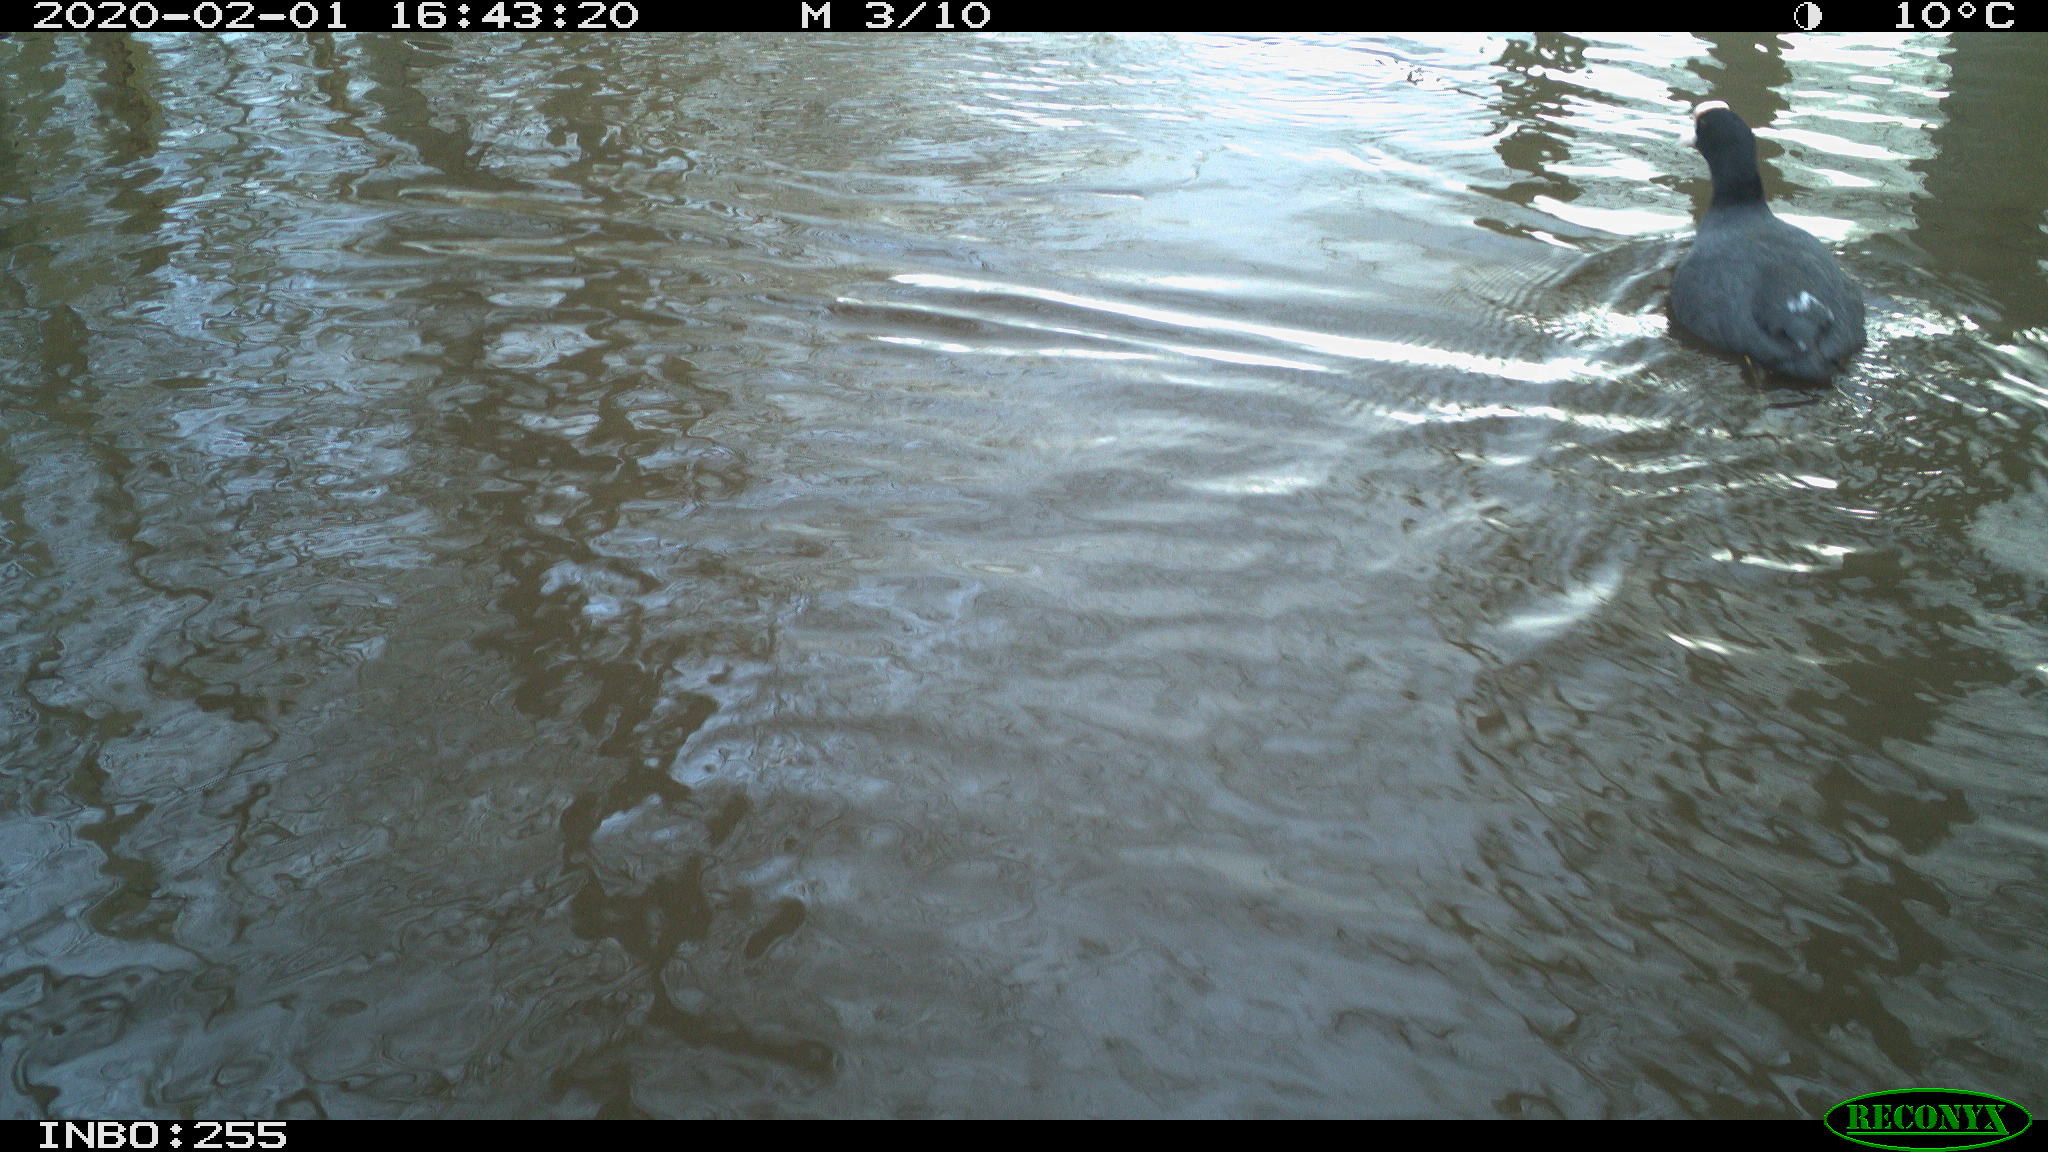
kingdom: Animalia
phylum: Chordata
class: Aves
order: Gruiformes
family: Rallidae
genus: Fulica
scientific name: Fulica atra
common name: Eurasian coot
